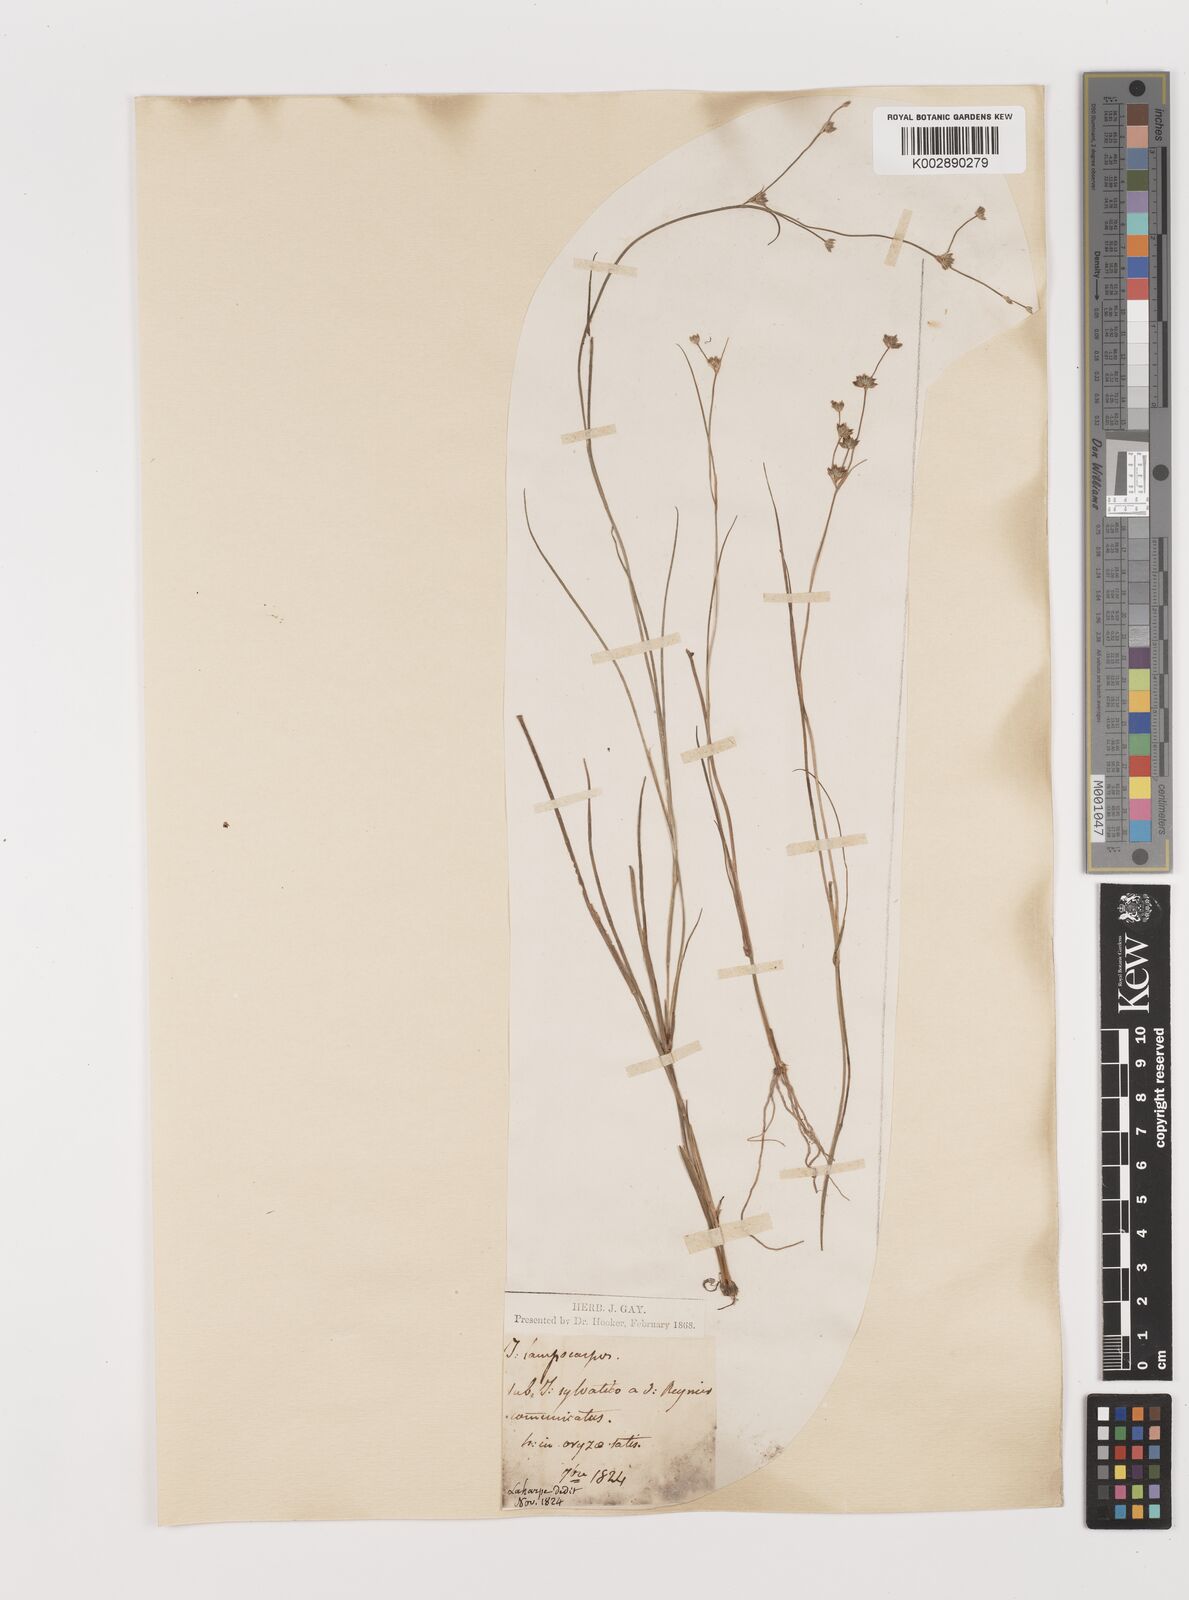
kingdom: Plantae
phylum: Tracheophyta
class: Liliopsida
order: Poales
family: Juncaceae
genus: Juncus
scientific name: Juncus articulatus
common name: Jointed rush
